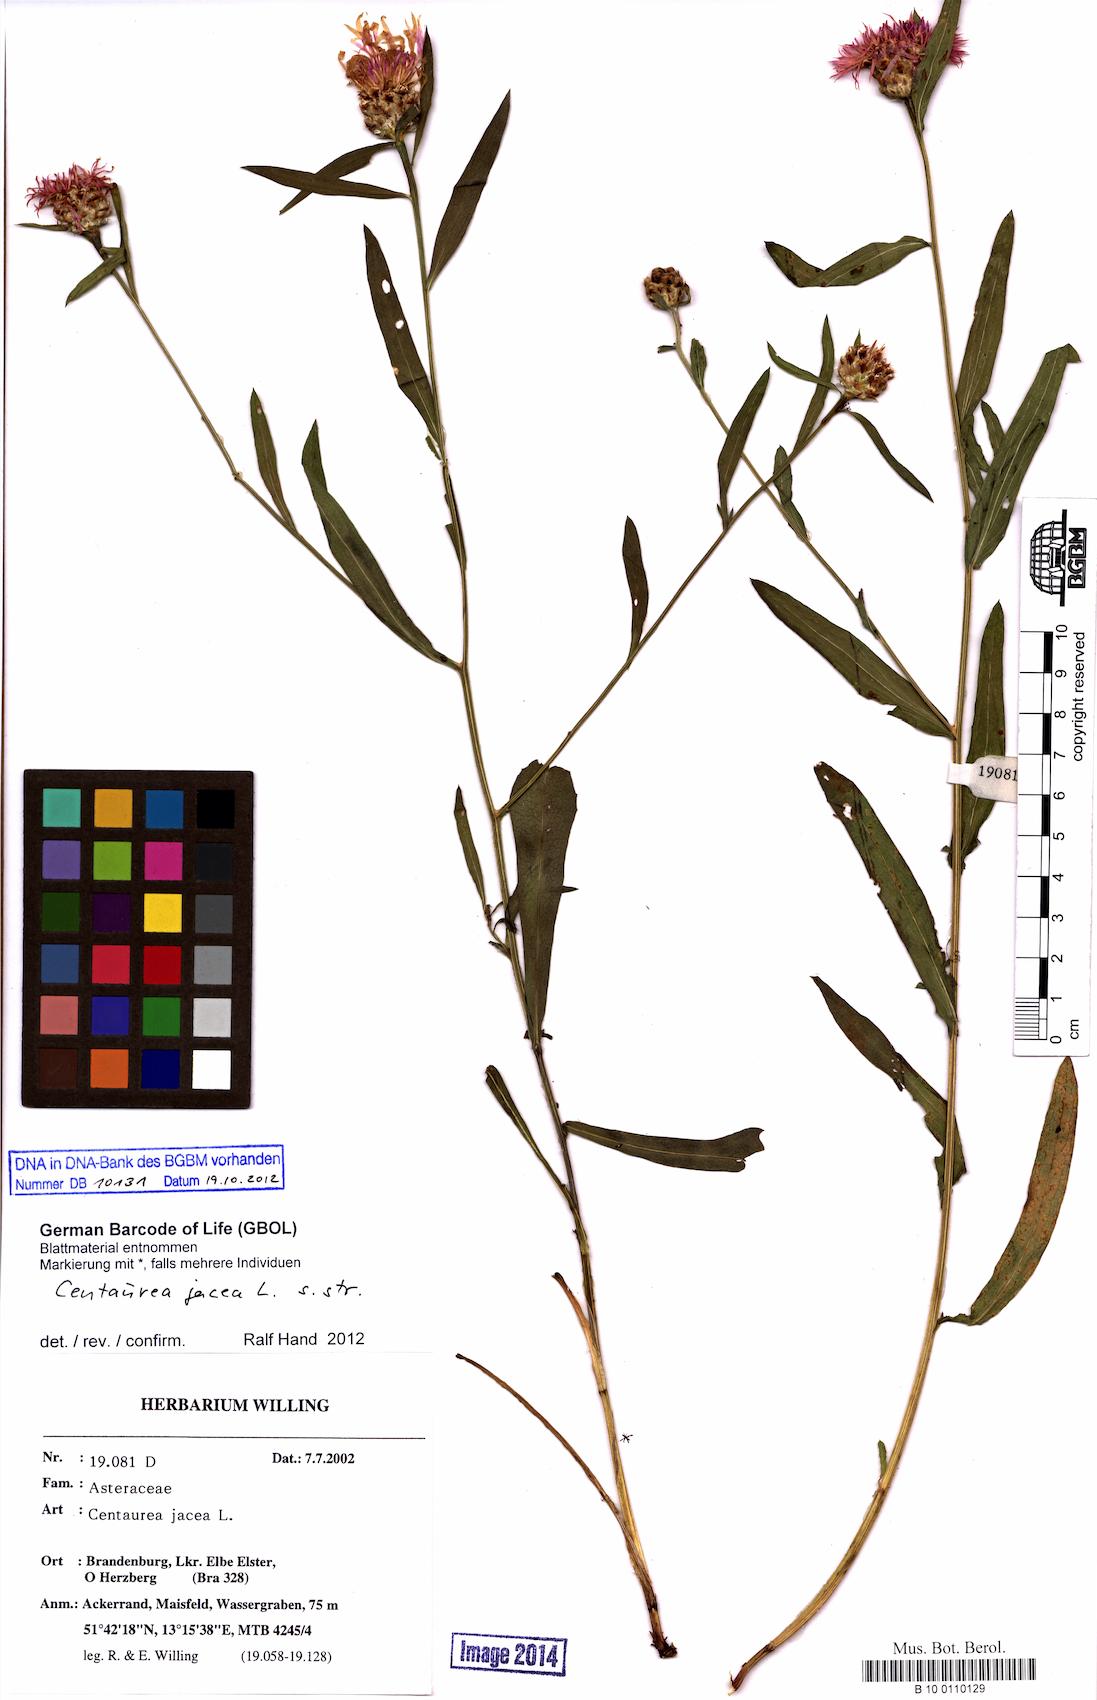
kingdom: Plantae
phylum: Tracheophyta
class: Magnoliopsida
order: Asterales
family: Asteraceae
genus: Centaurea
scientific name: Centaurea jacea
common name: Brown knapweed
